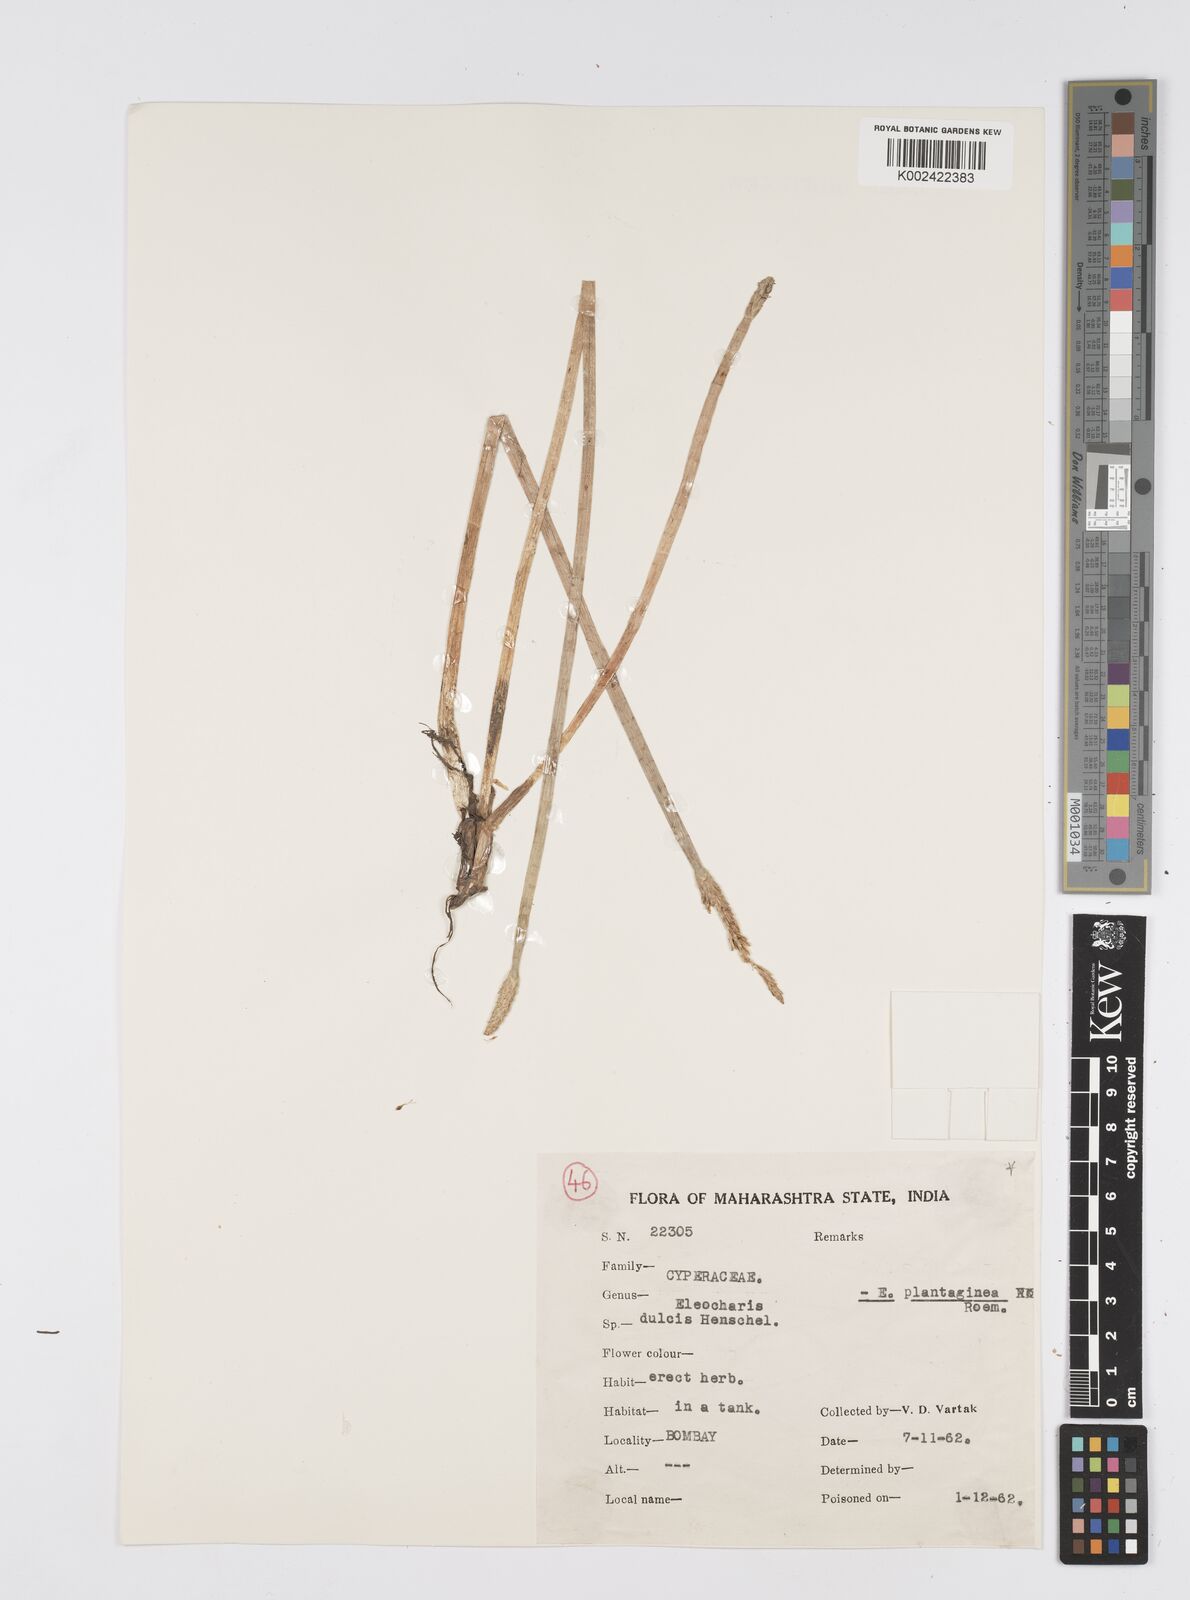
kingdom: Plantae
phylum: Tracheophyta
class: Liliopsida
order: Poales
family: Cyperaceae
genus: Eleocharis
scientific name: Eleocharis dulcis
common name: Chinese water chestnut
